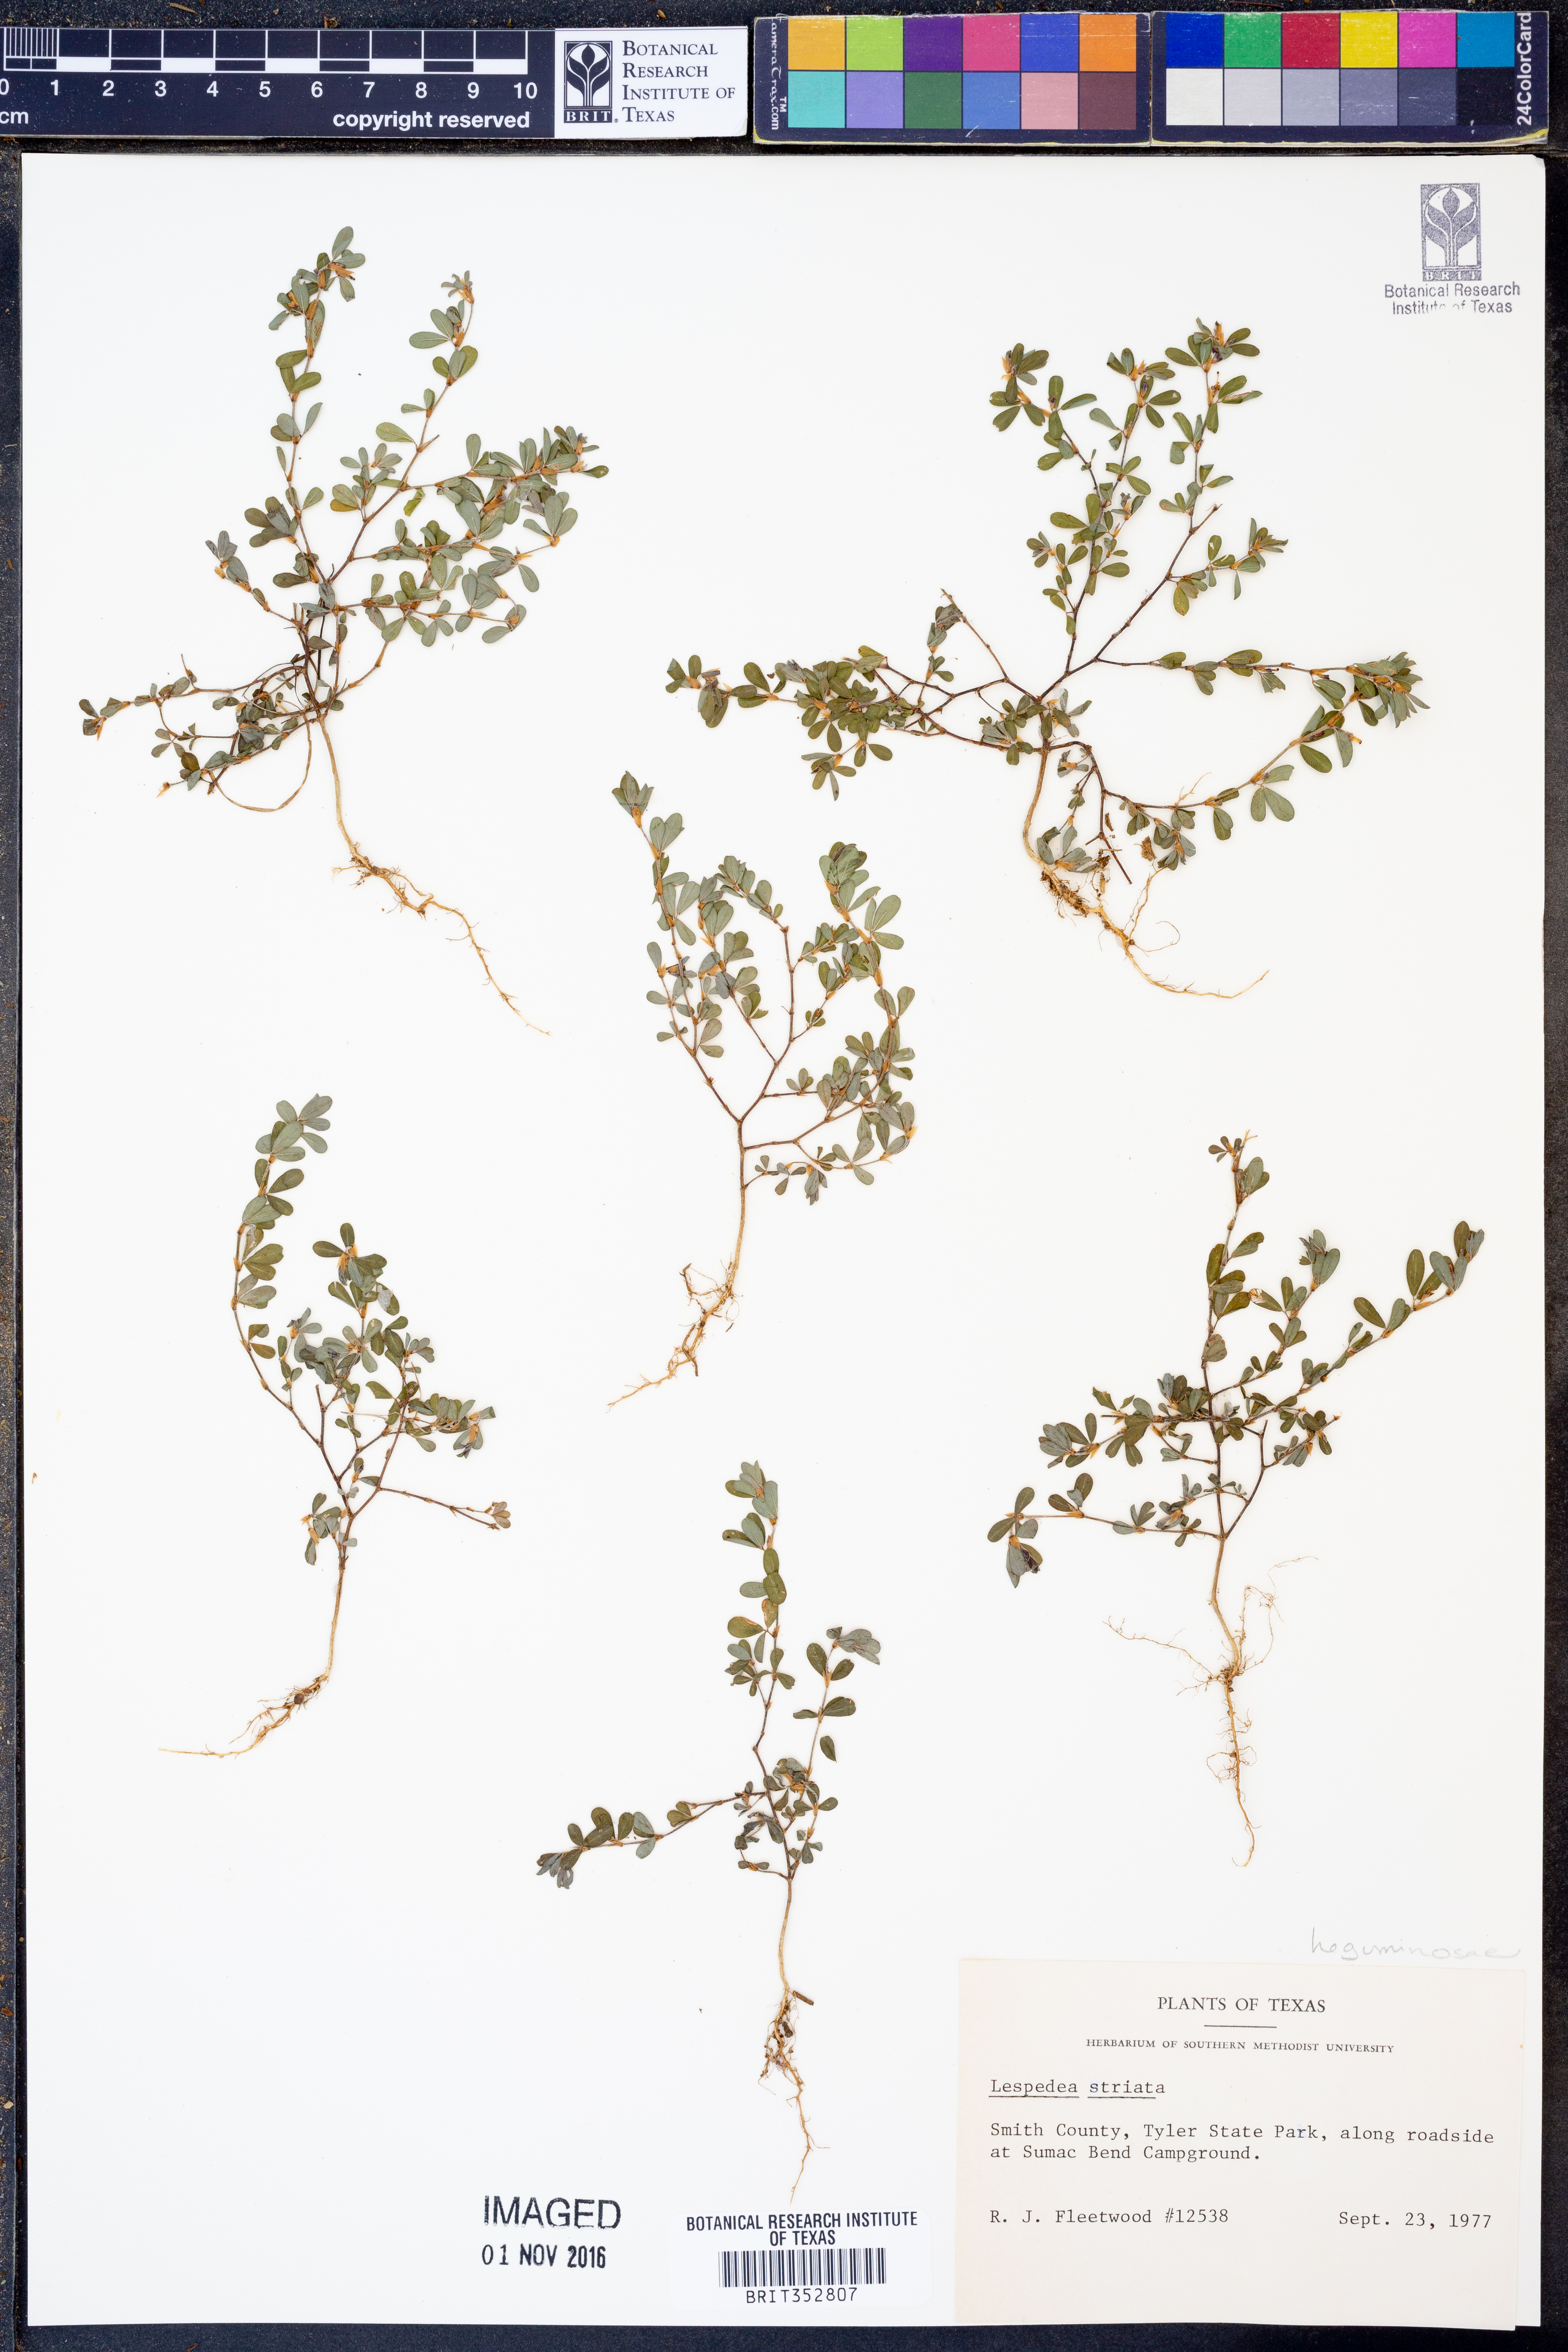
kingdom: Plantae
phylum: Tracheophyta
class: Magnoliopsida
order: Fabales
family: Fabaceae
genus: Kummerowia
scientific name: Kummerowia striata
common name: Japanese clover
